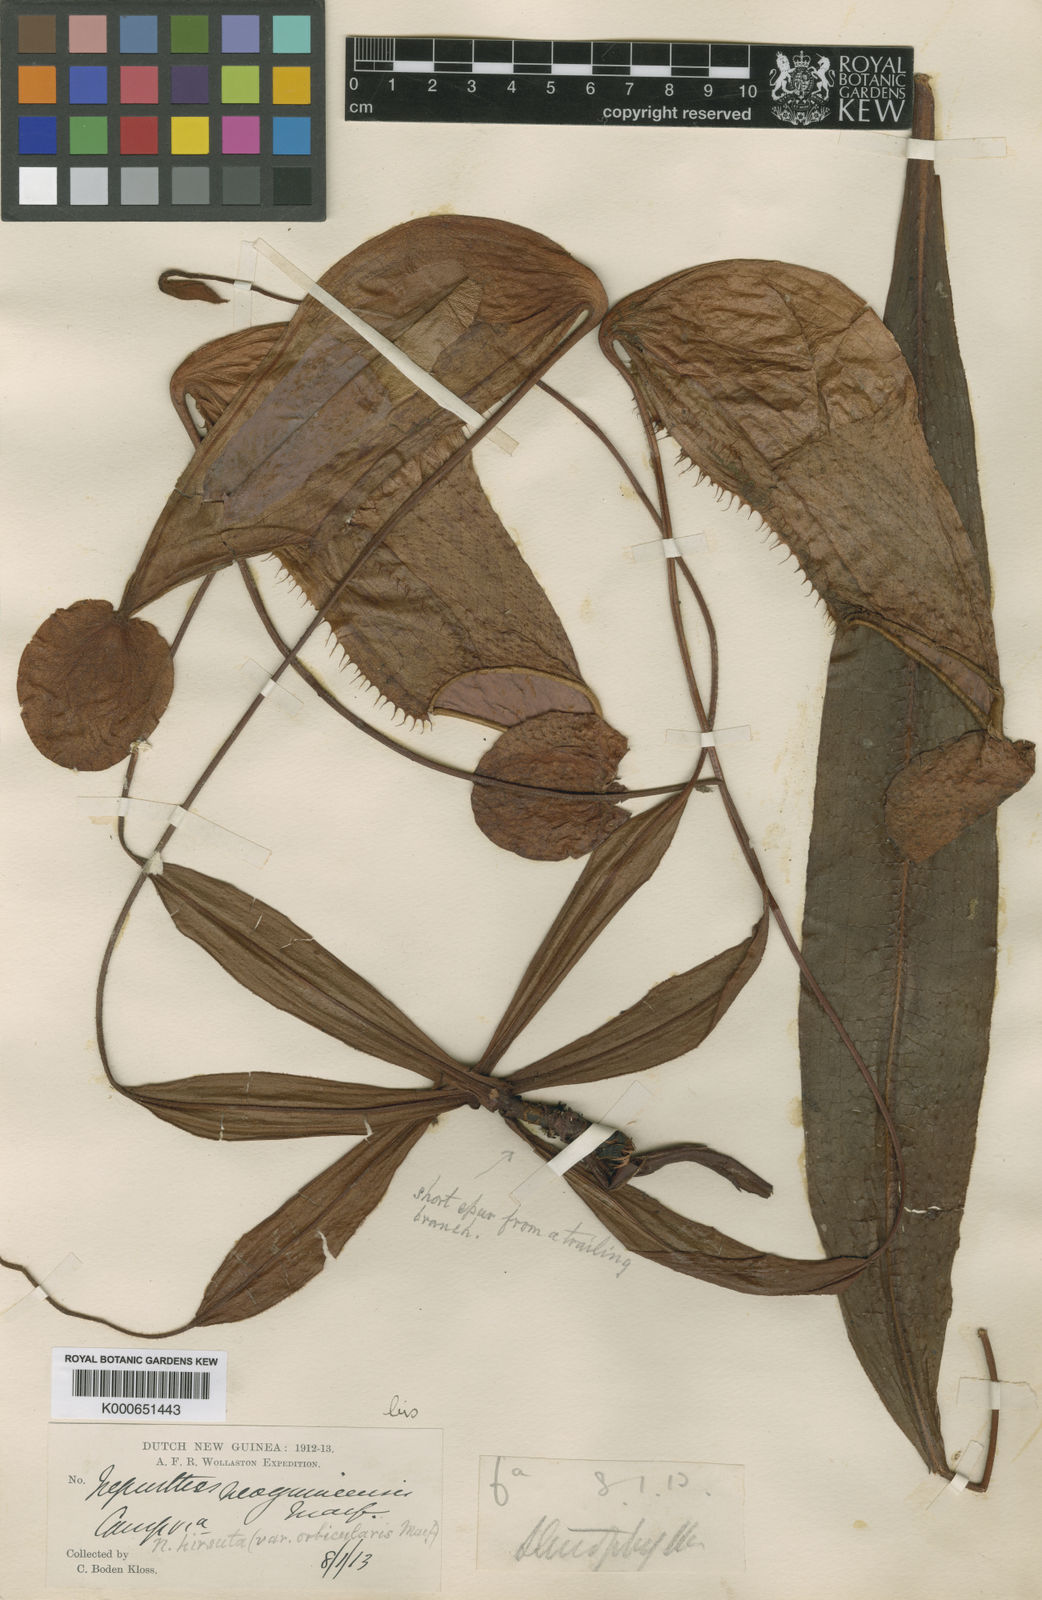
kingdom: Plantae
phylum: Tracheophyta
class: Magnoliopsida
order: Caryophyllales
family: Nepenthaceae
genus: Nepenthes
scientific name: Nepenthes neoguineensis
